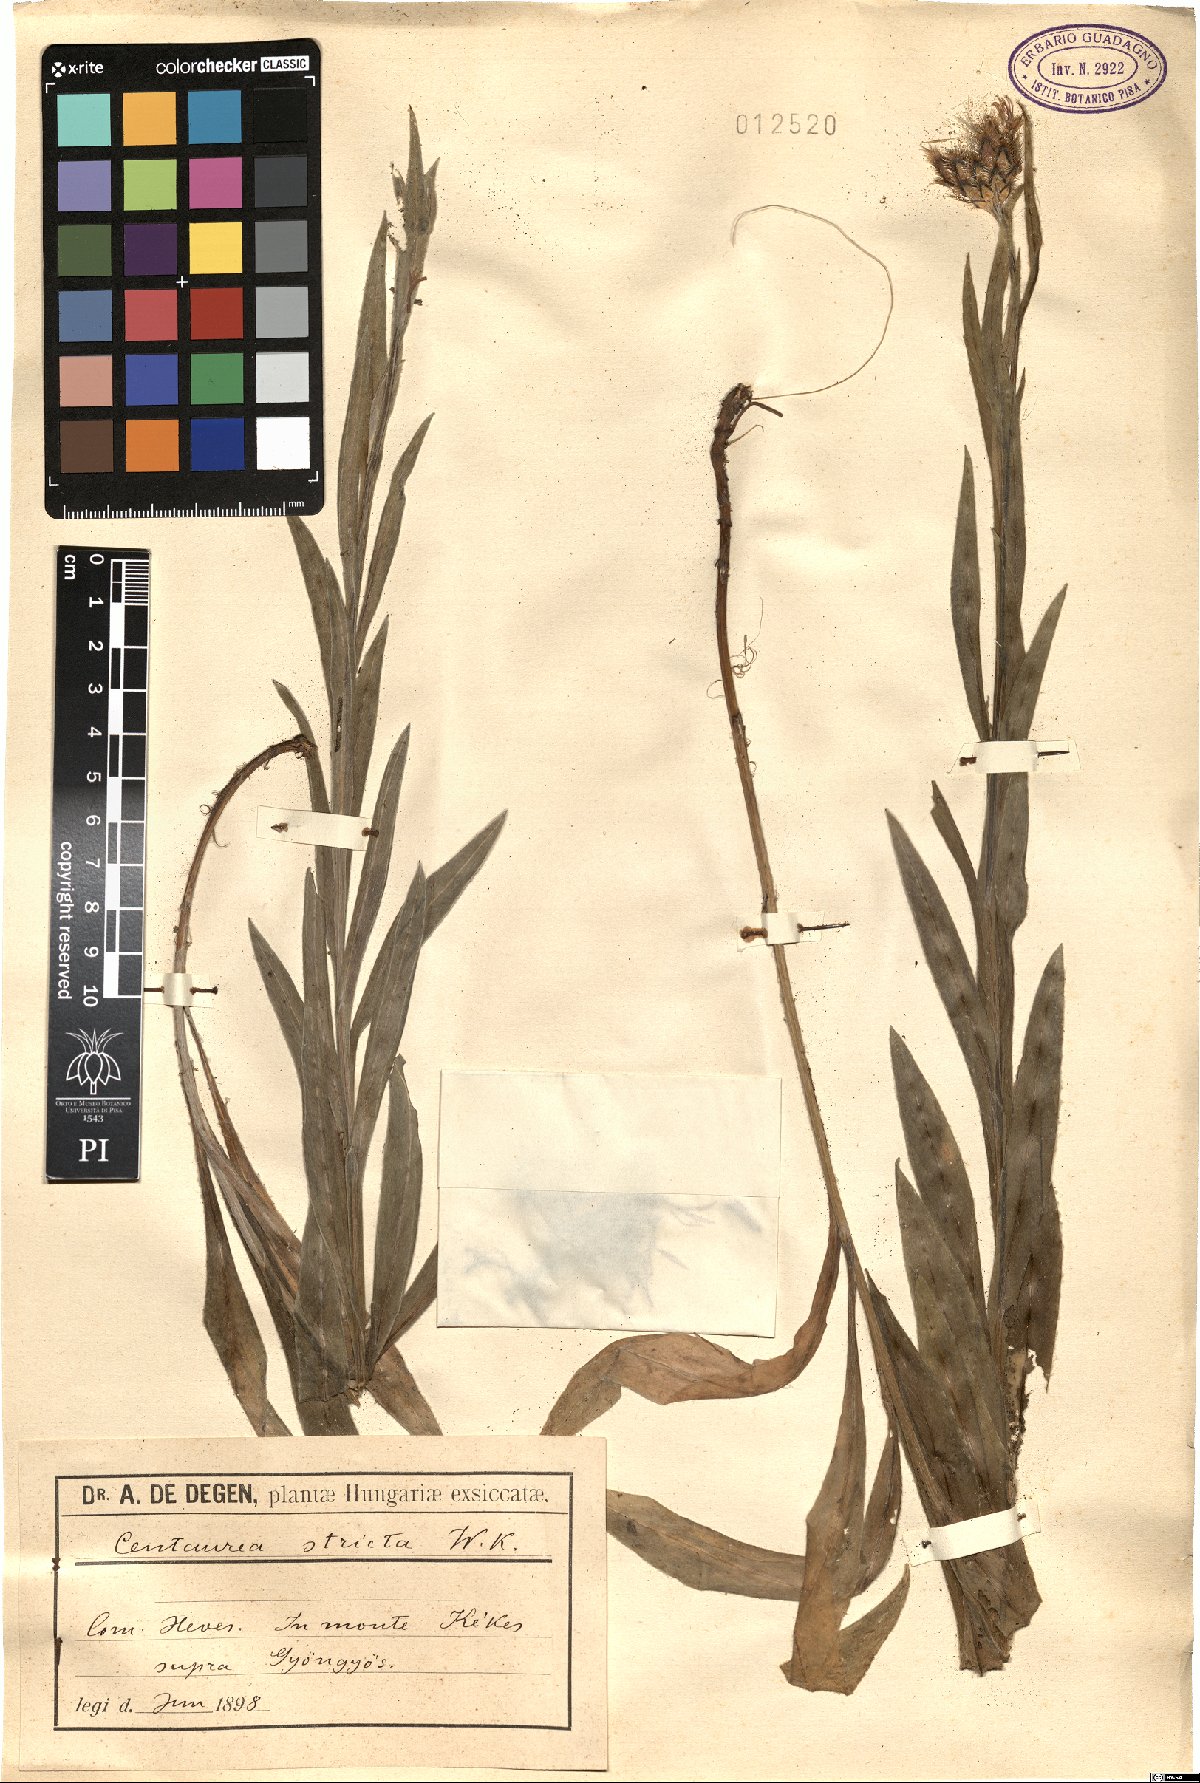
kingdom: Plantae
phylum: Tracheophyta
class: Magnoliopsida
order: Asterales
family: Asteraceae
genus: Centaurea
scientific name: Centaurea stricta
